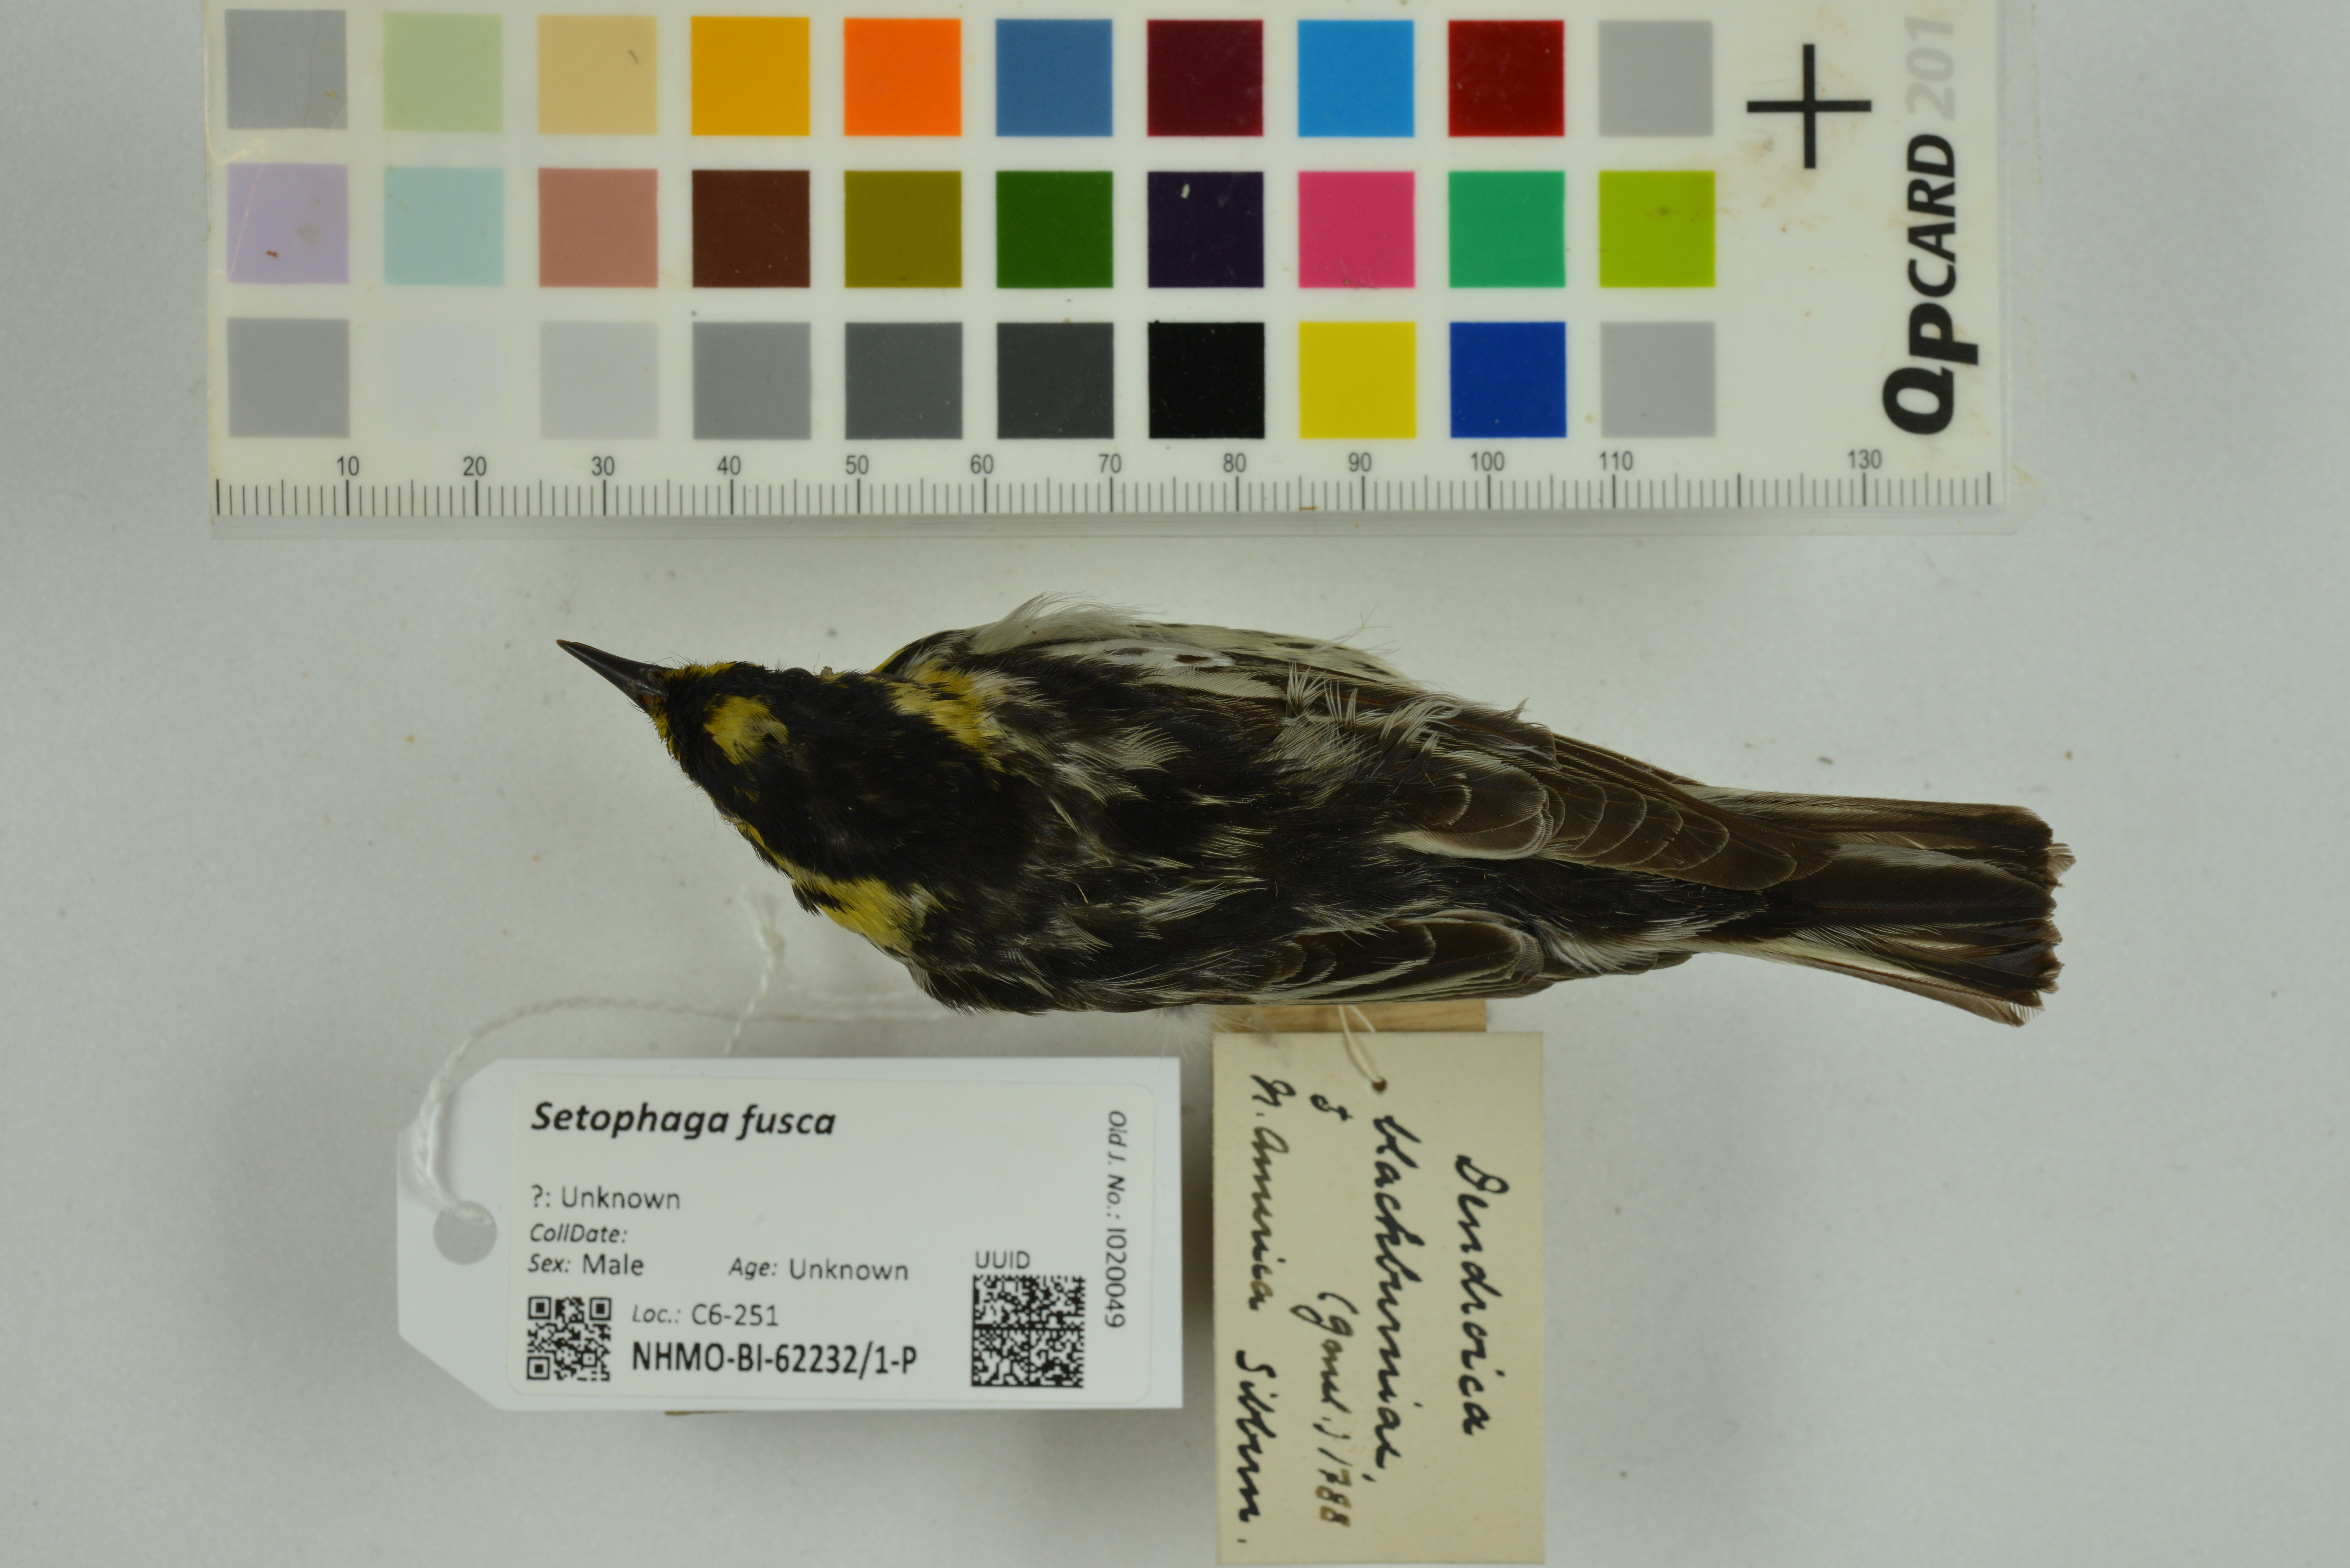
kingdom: Animalia
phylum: Chordata
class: Aves
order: Passeriformes
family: Parulidae
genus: Setophaga
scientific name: Setophaga fusca
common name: Blackburnian warbler
